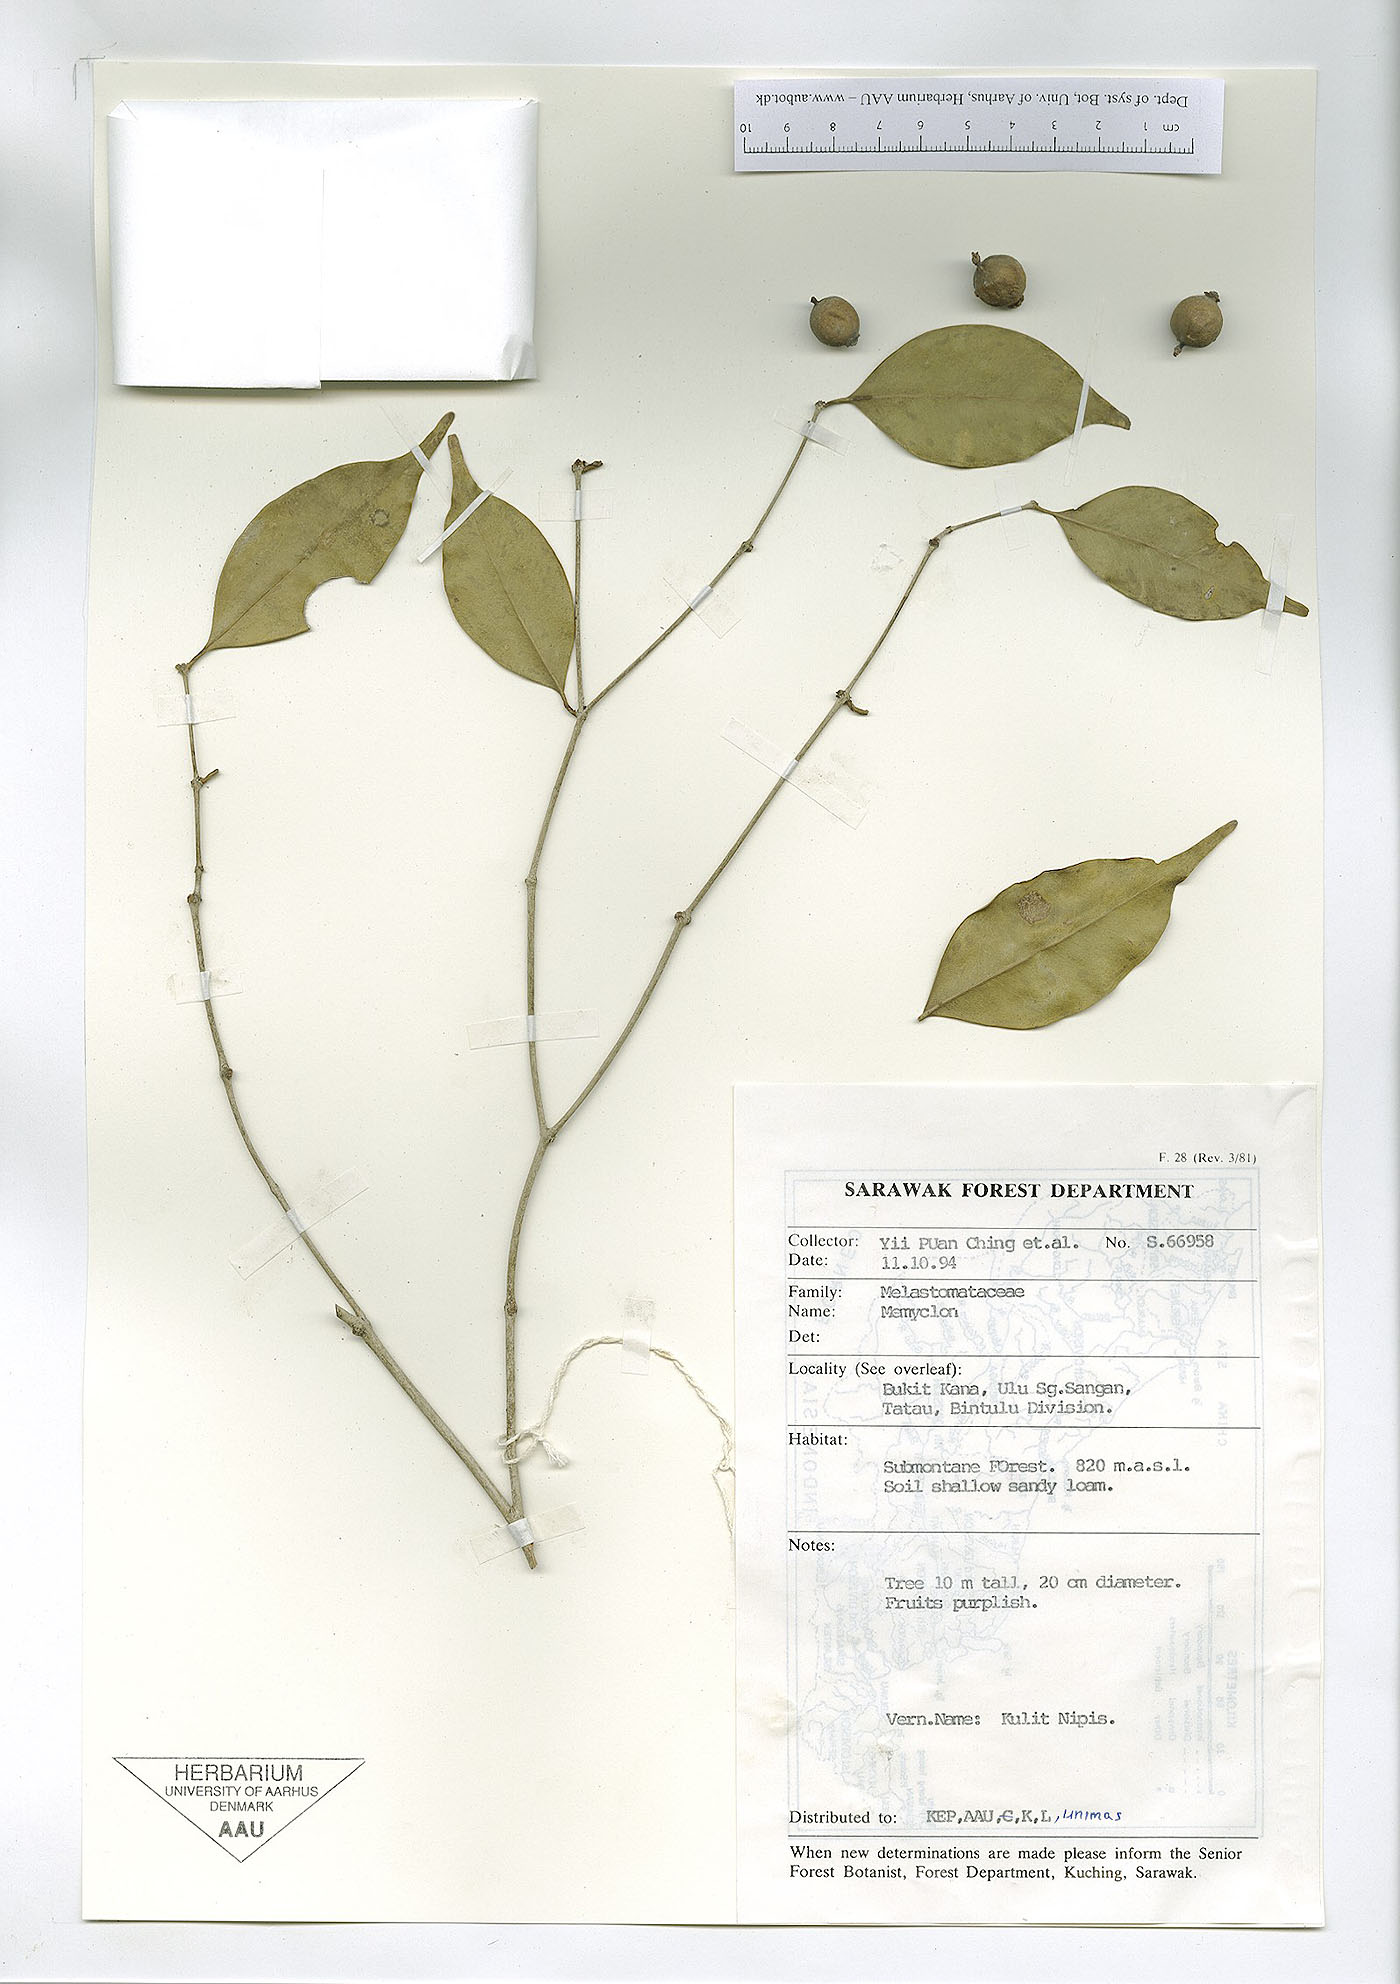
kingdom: Plantae
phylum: Tracheophyta
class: Magnoliopsida
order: Myrtales
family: Melastomataceae
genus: Memecylon
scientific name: Memecylon
